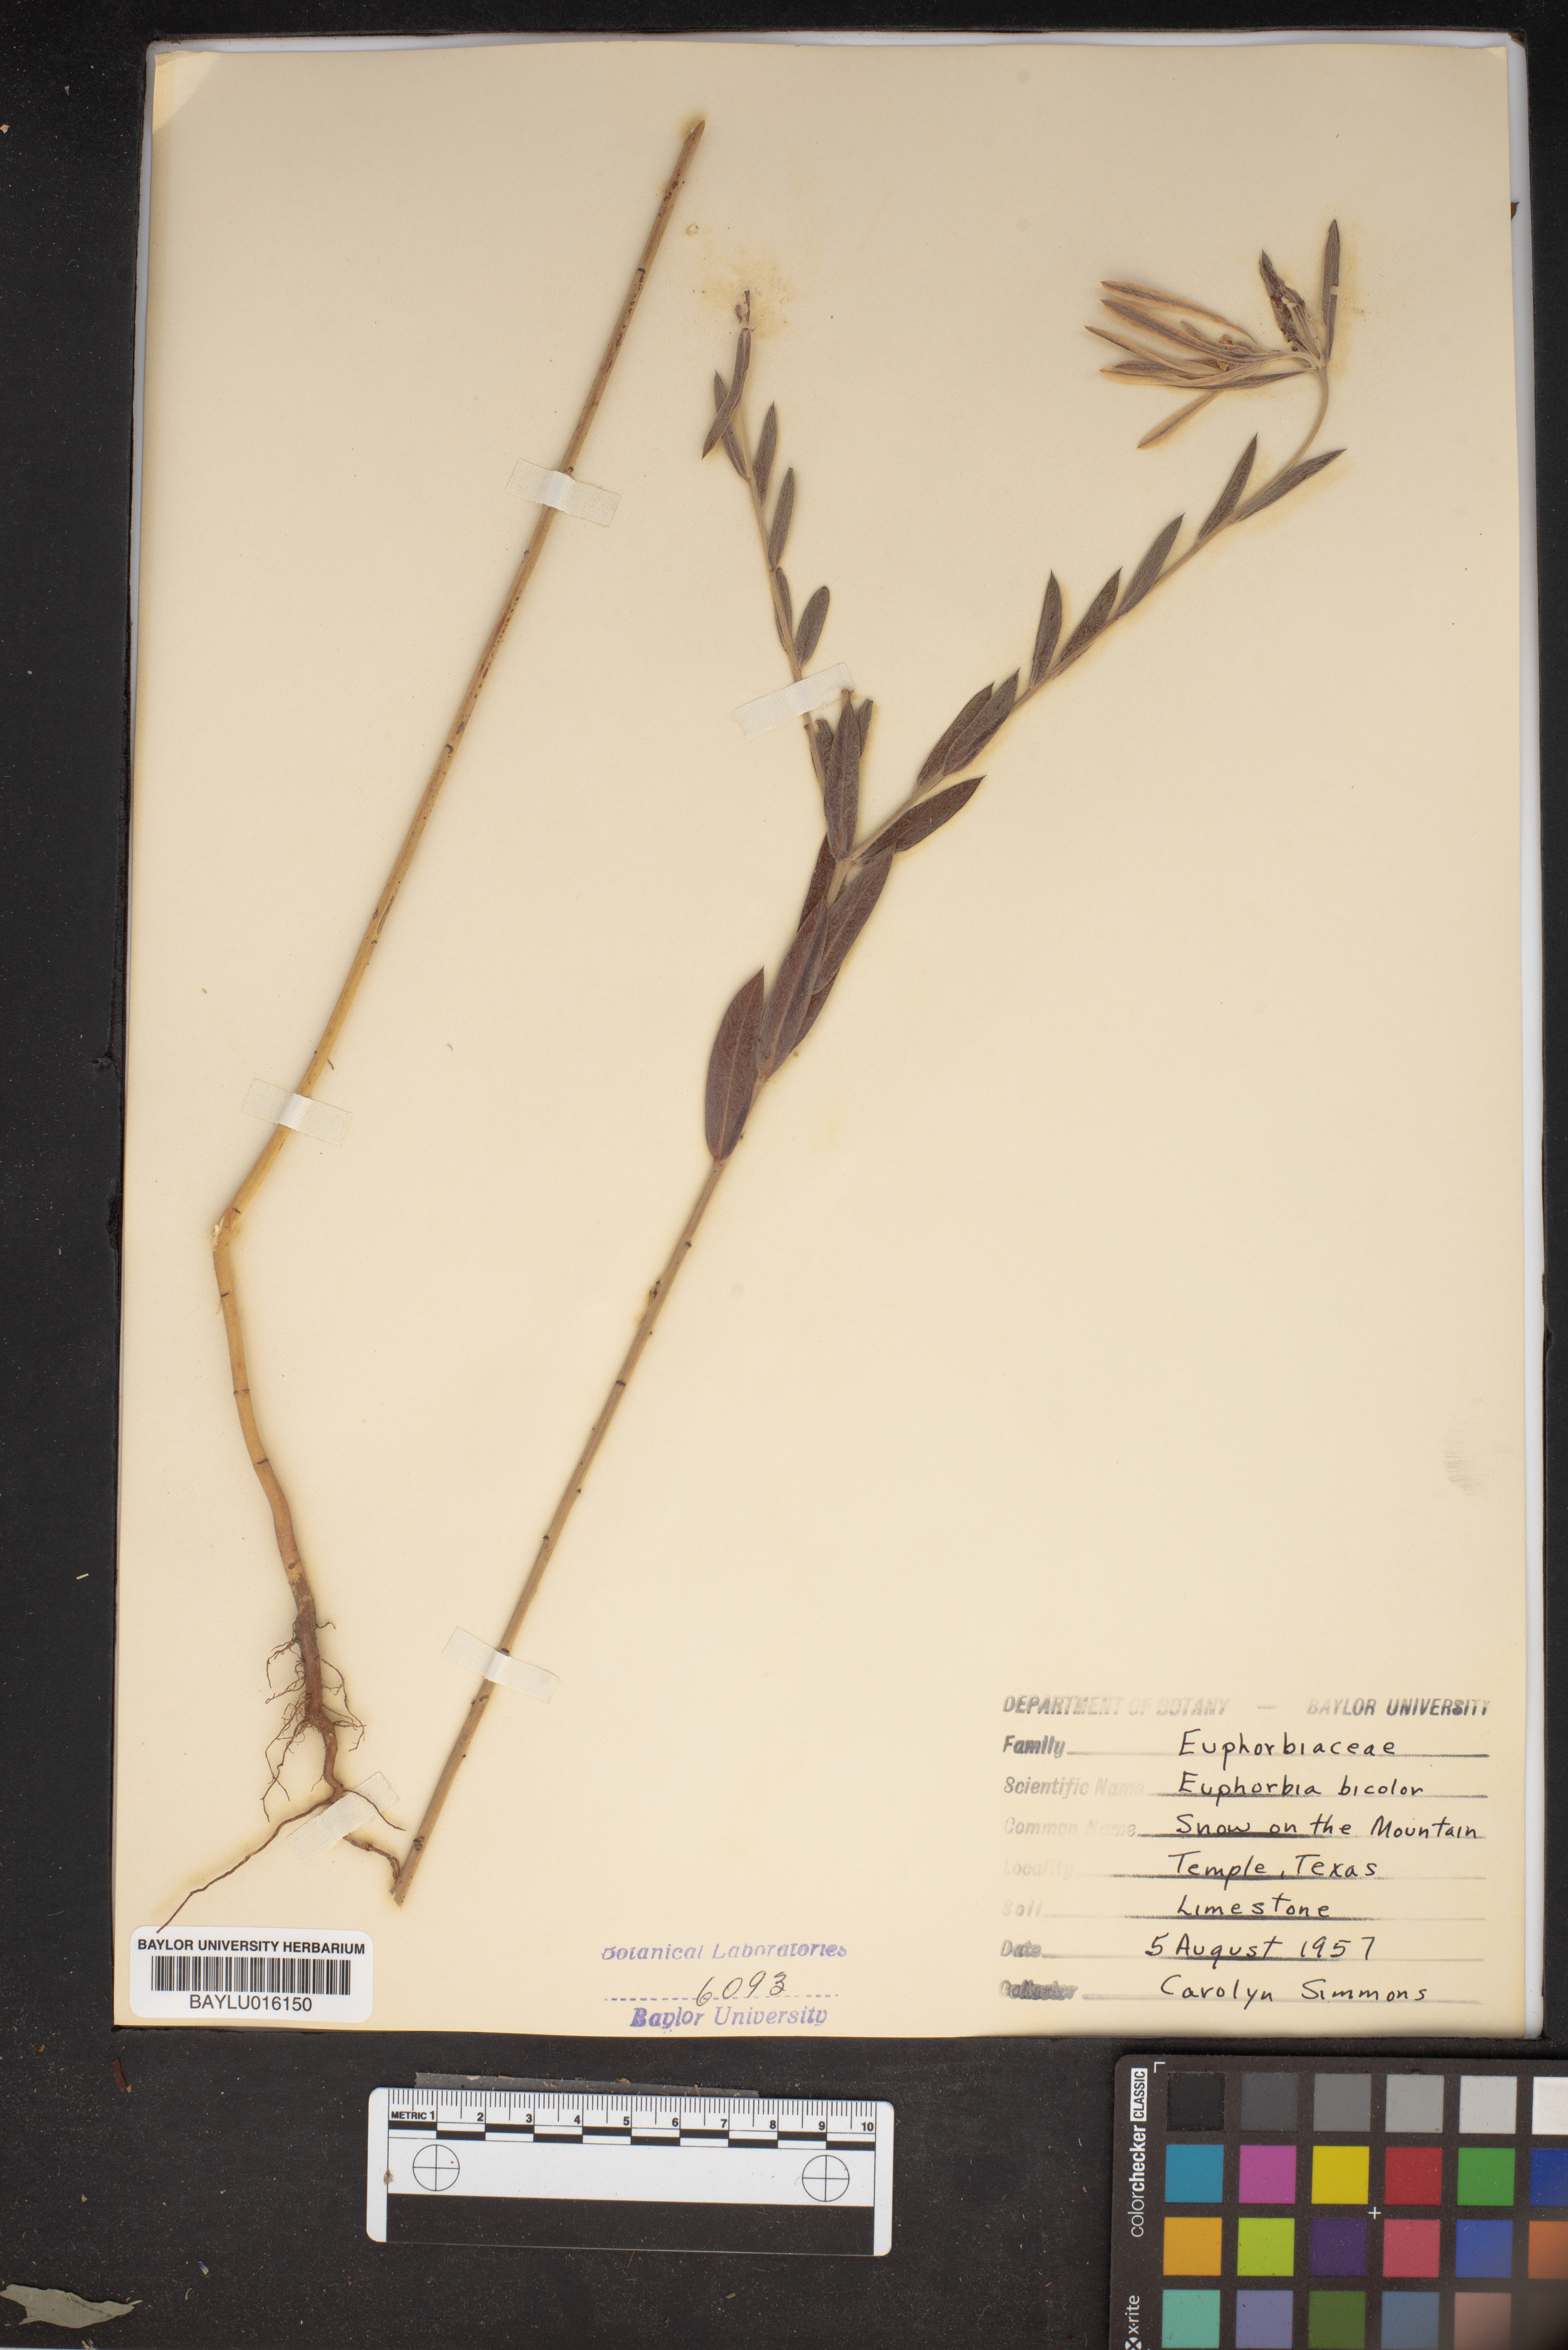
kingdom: Plantae
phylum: Tracheophyta
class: Magnoliopsida
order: Malpighiales
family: Euphorbiaceae
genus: Euphorbia
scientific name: Euphorbia bicolor
